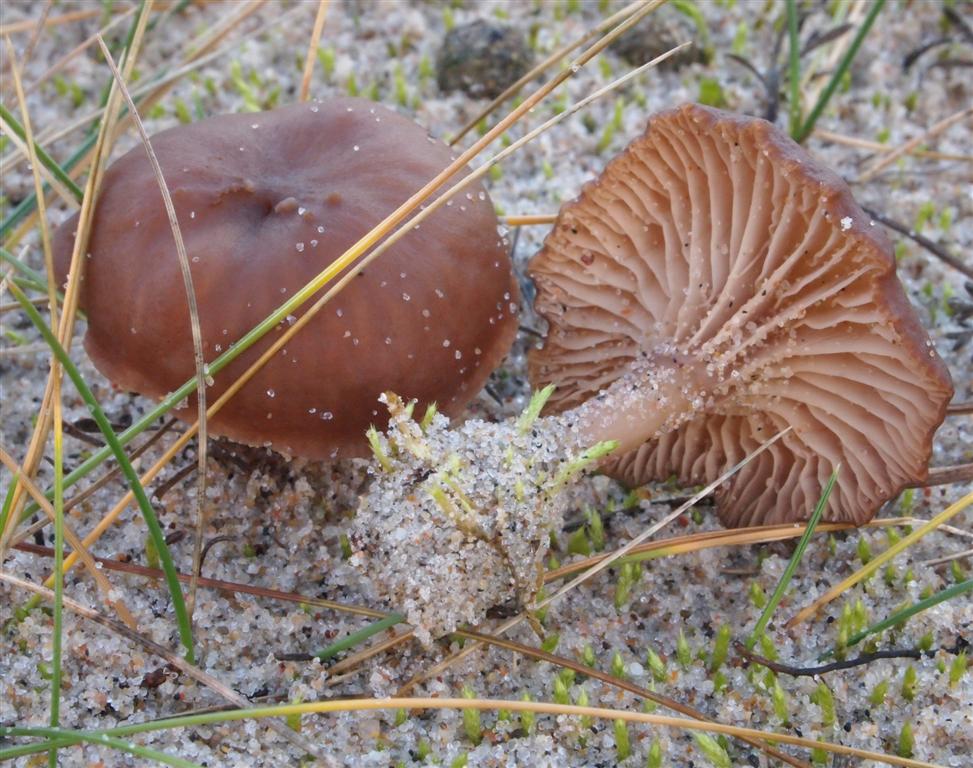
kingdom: Fungi
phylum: Basidiomycota
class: Agaricomycetes
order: Agaricales
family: Tricholomataceae
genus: Omphalina
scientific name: Omphalina pyxidata
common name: rødbrun navlehat
